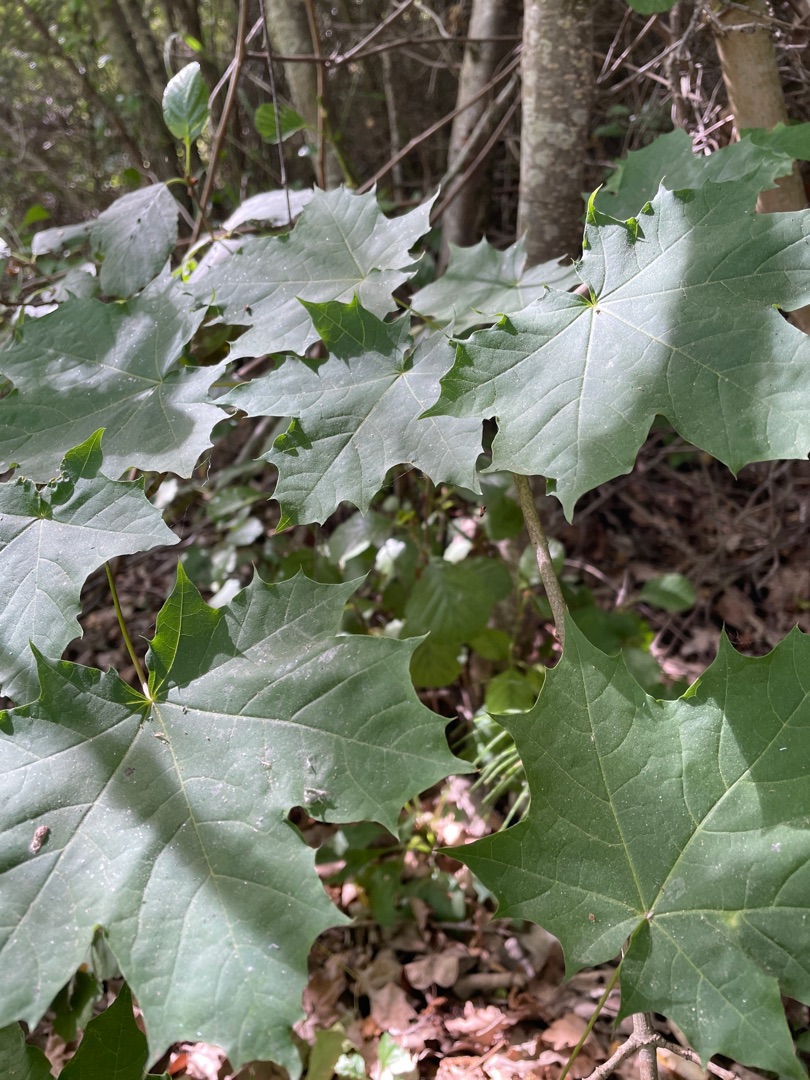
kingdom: Plantae
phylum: Tracheophyta
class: Magnoliopsida
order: Sapindales
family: Sapindaceae
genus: Acer
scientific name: Acer platanoides
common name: Spids-løn
